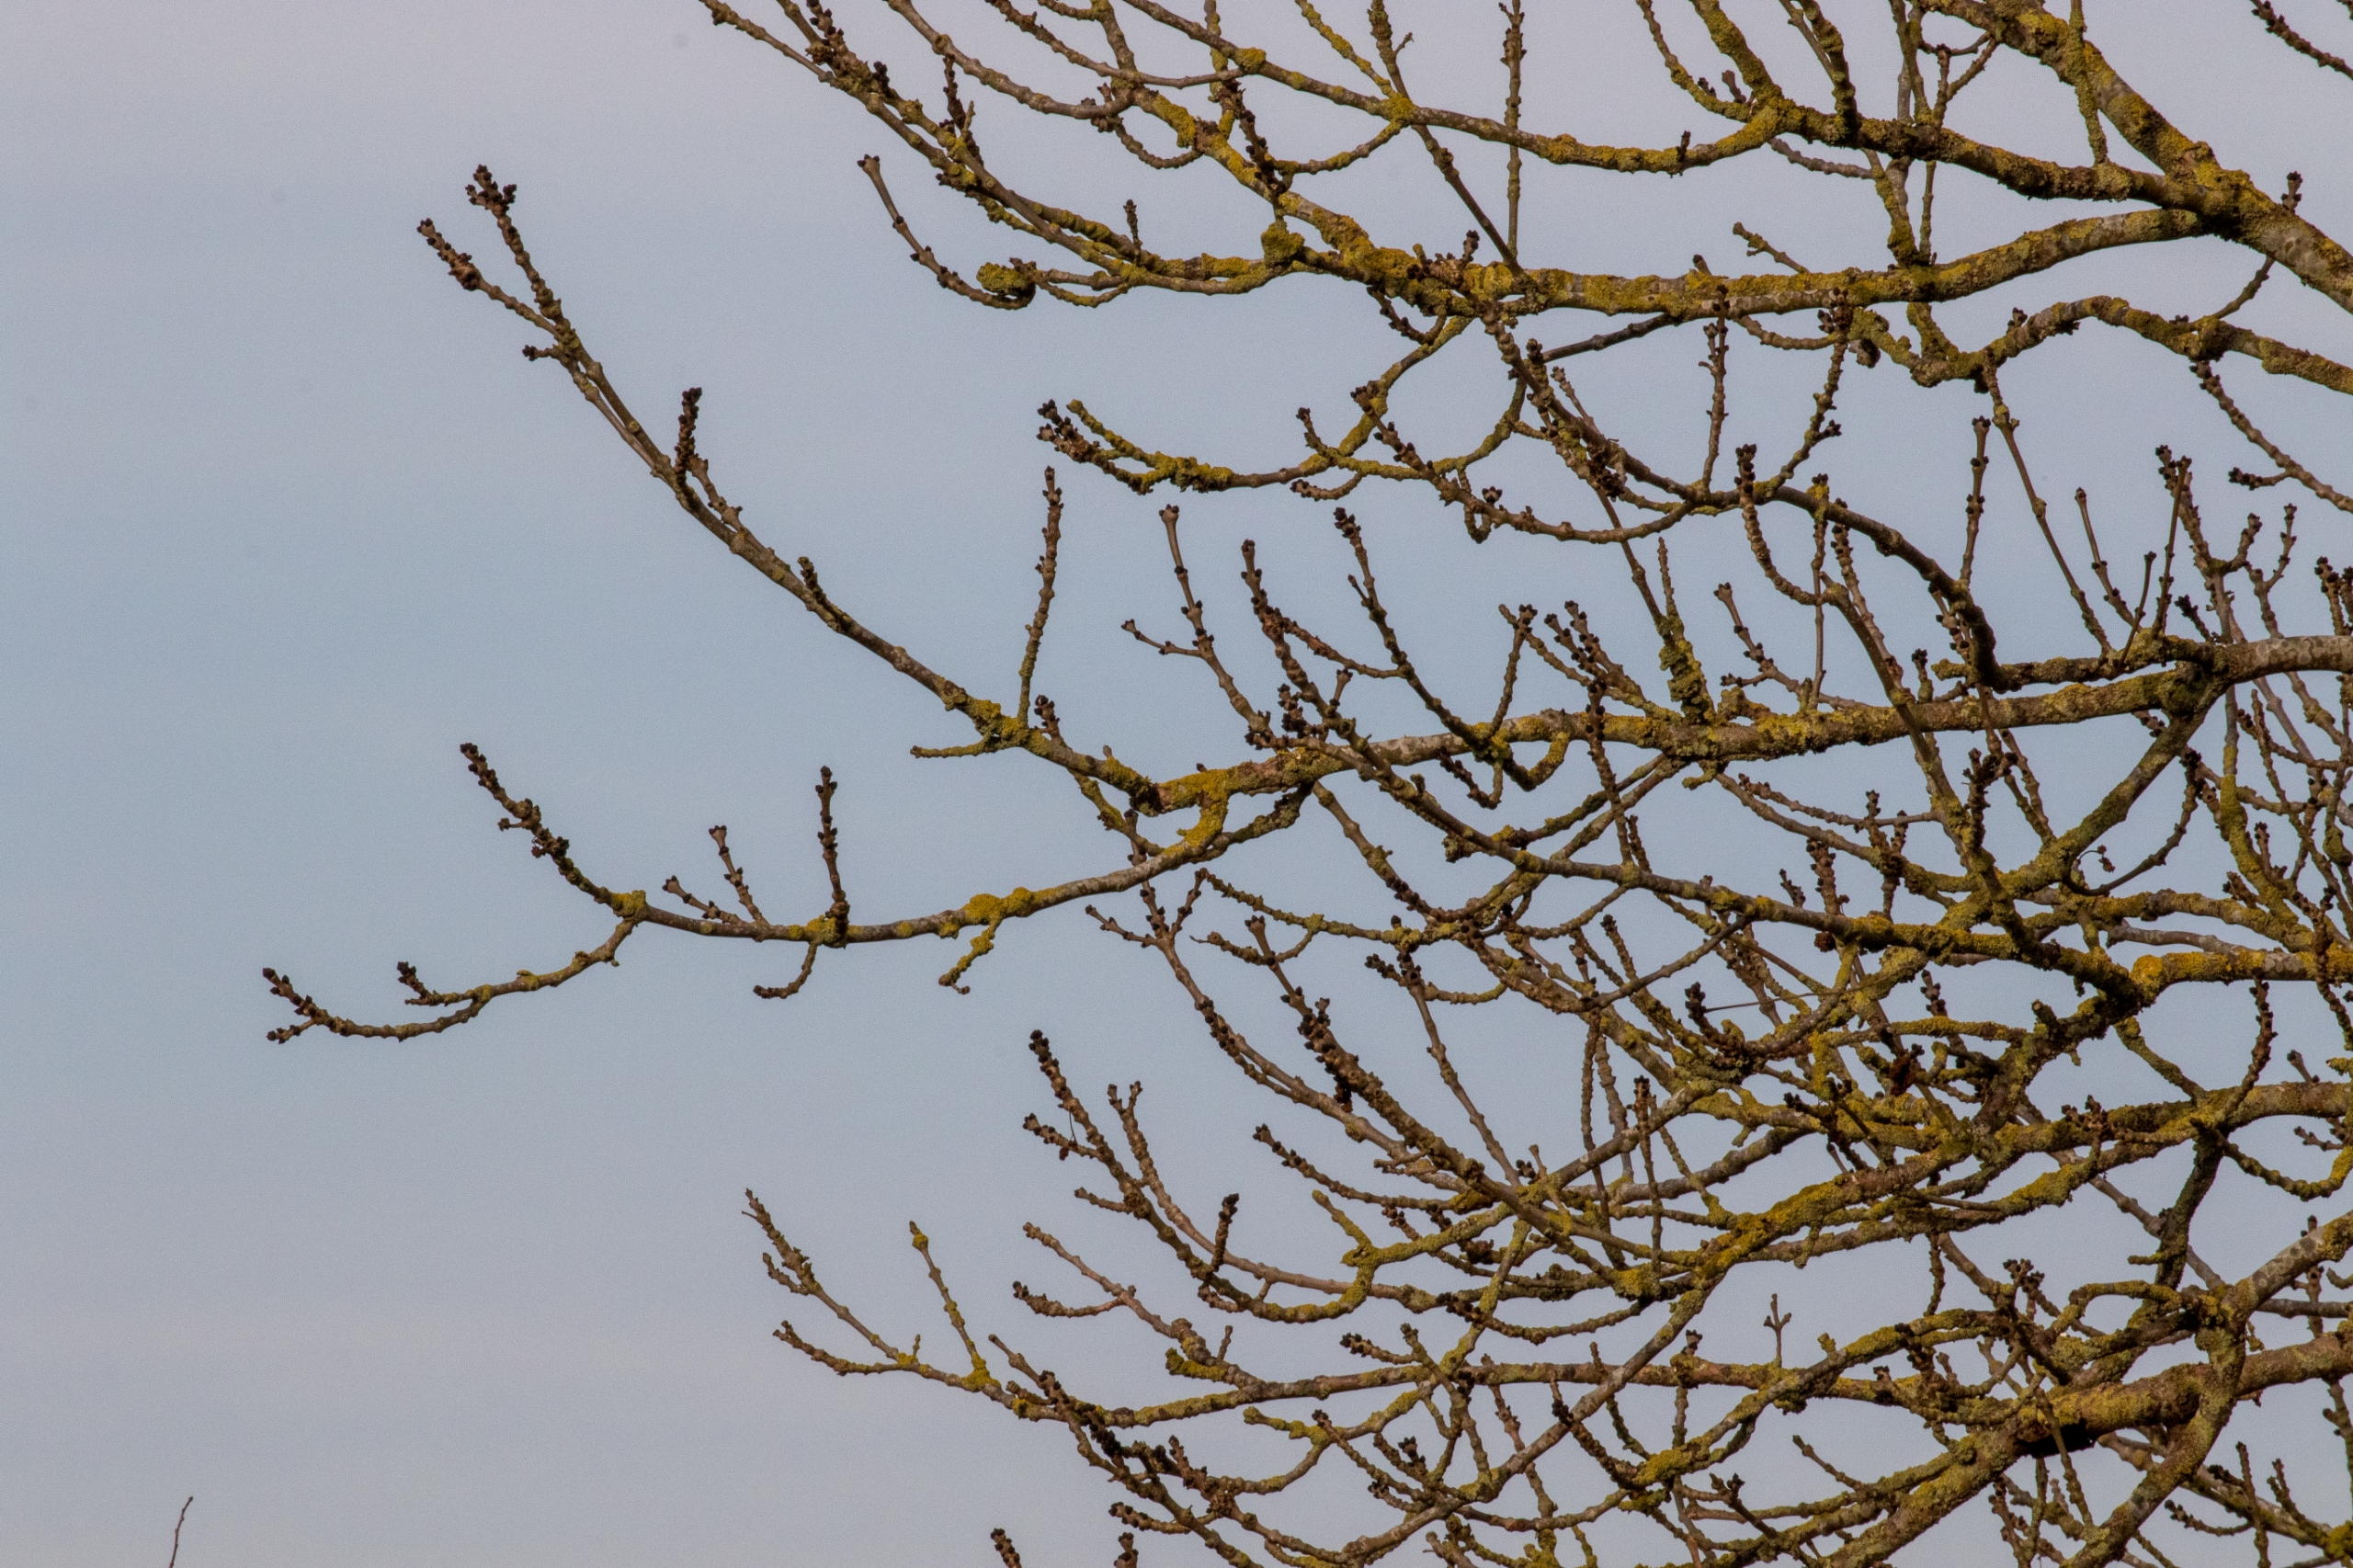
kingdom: Plantae
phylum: Tracheophyta
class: Magnoliopsida
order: Lamiales
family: Oleaceae
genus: Fraxinus
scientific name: Fraxinus excelsior
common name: Ask
